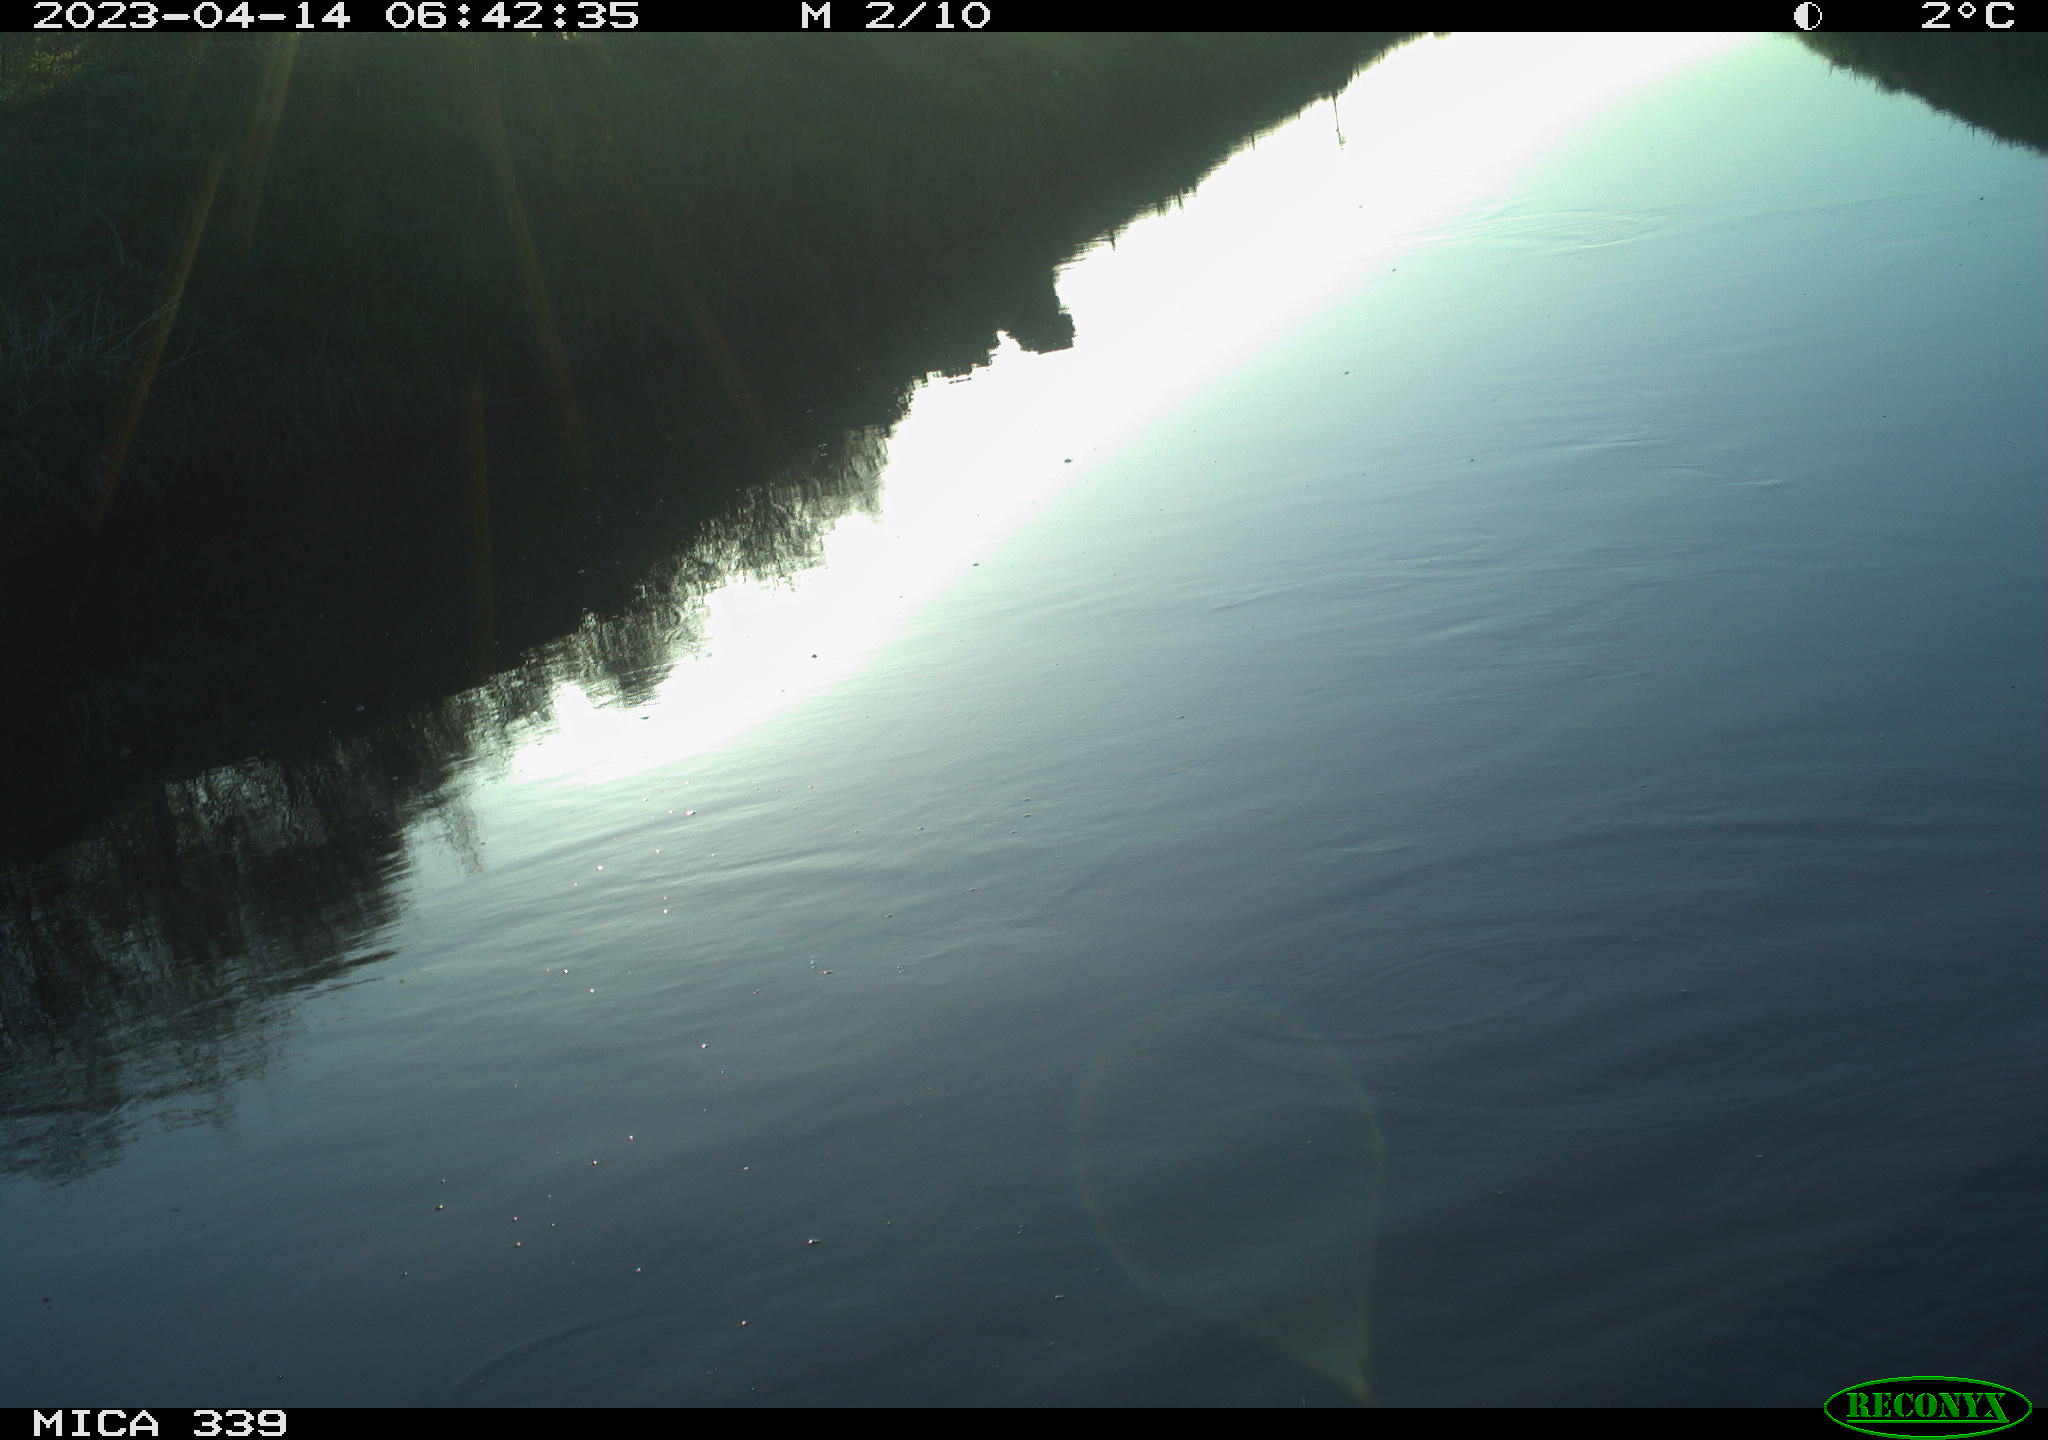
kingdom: Animalia
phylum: Chordata
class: Aves
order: Pelecaniformes
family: Ardeidae
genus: Ardea
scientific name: Ardea cinerea
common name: Grey heron
